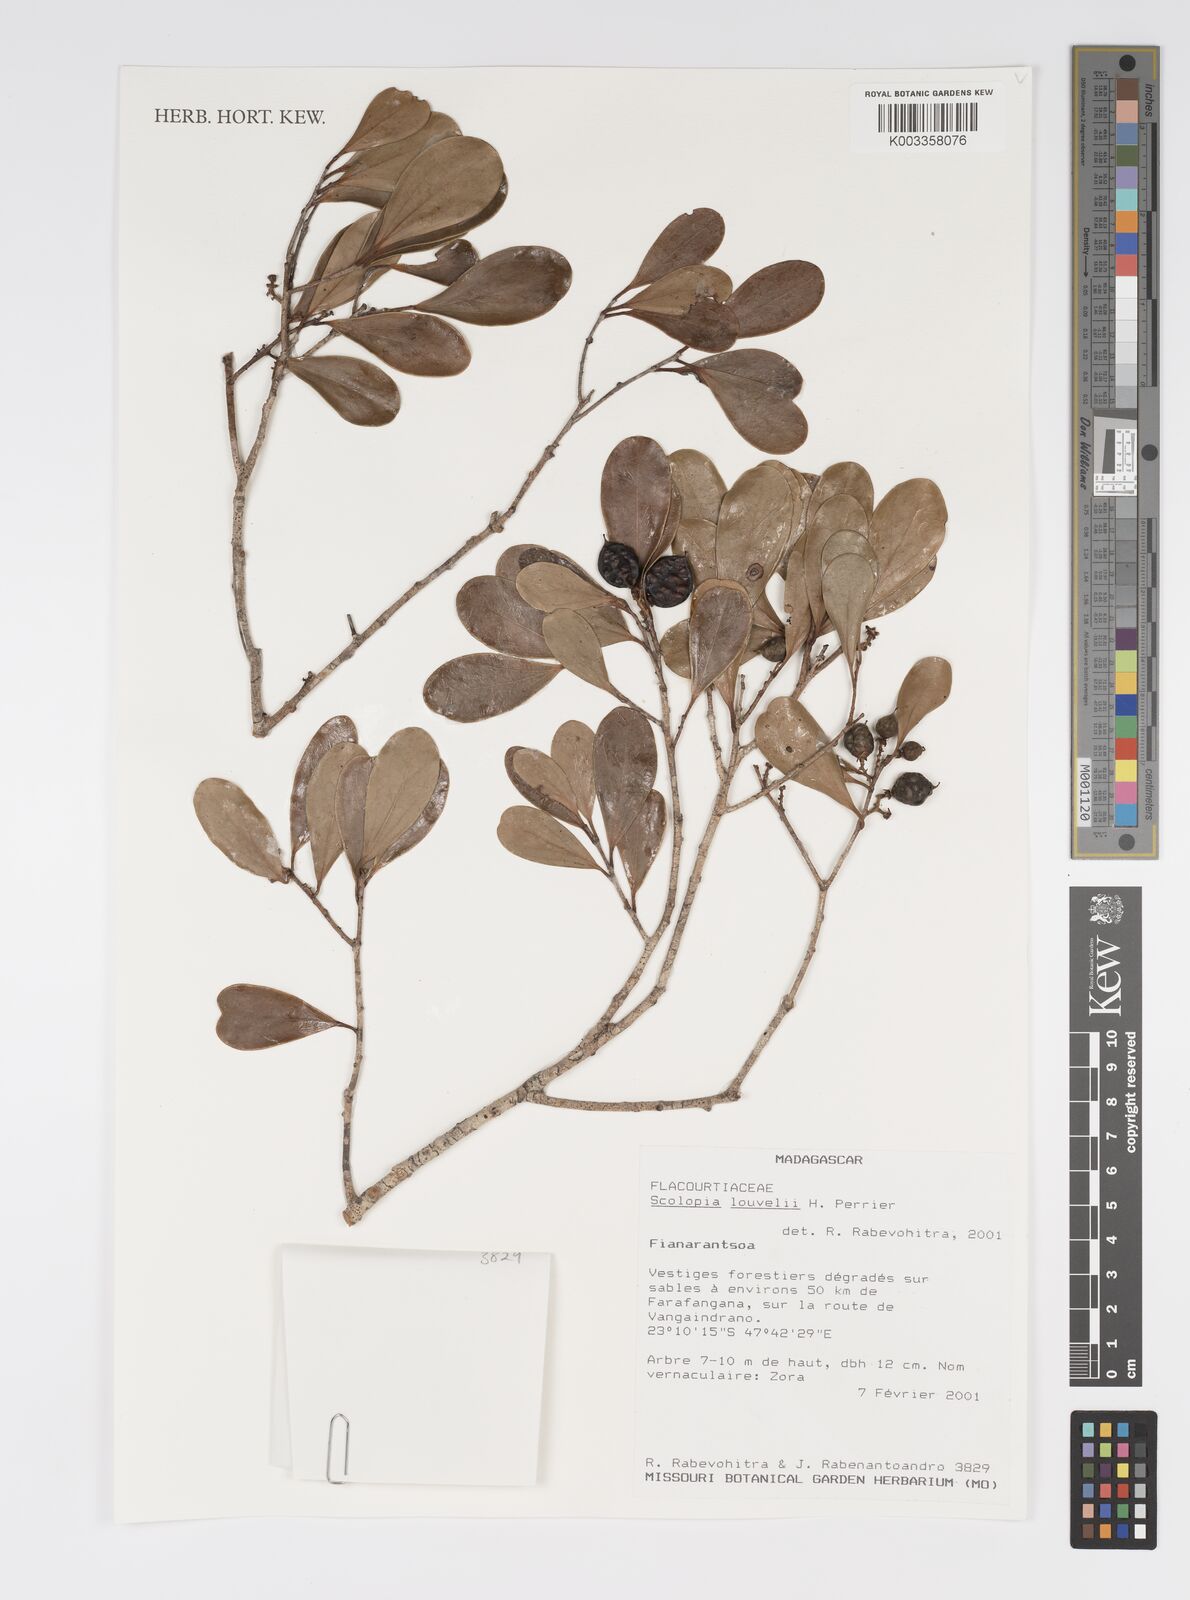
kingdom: Plantae
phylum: Tracheophyta
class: Magnoliopsida
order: Malpighiales
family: Salicaceae
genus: Scolopia
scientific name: Scolopia erythrocarpa
